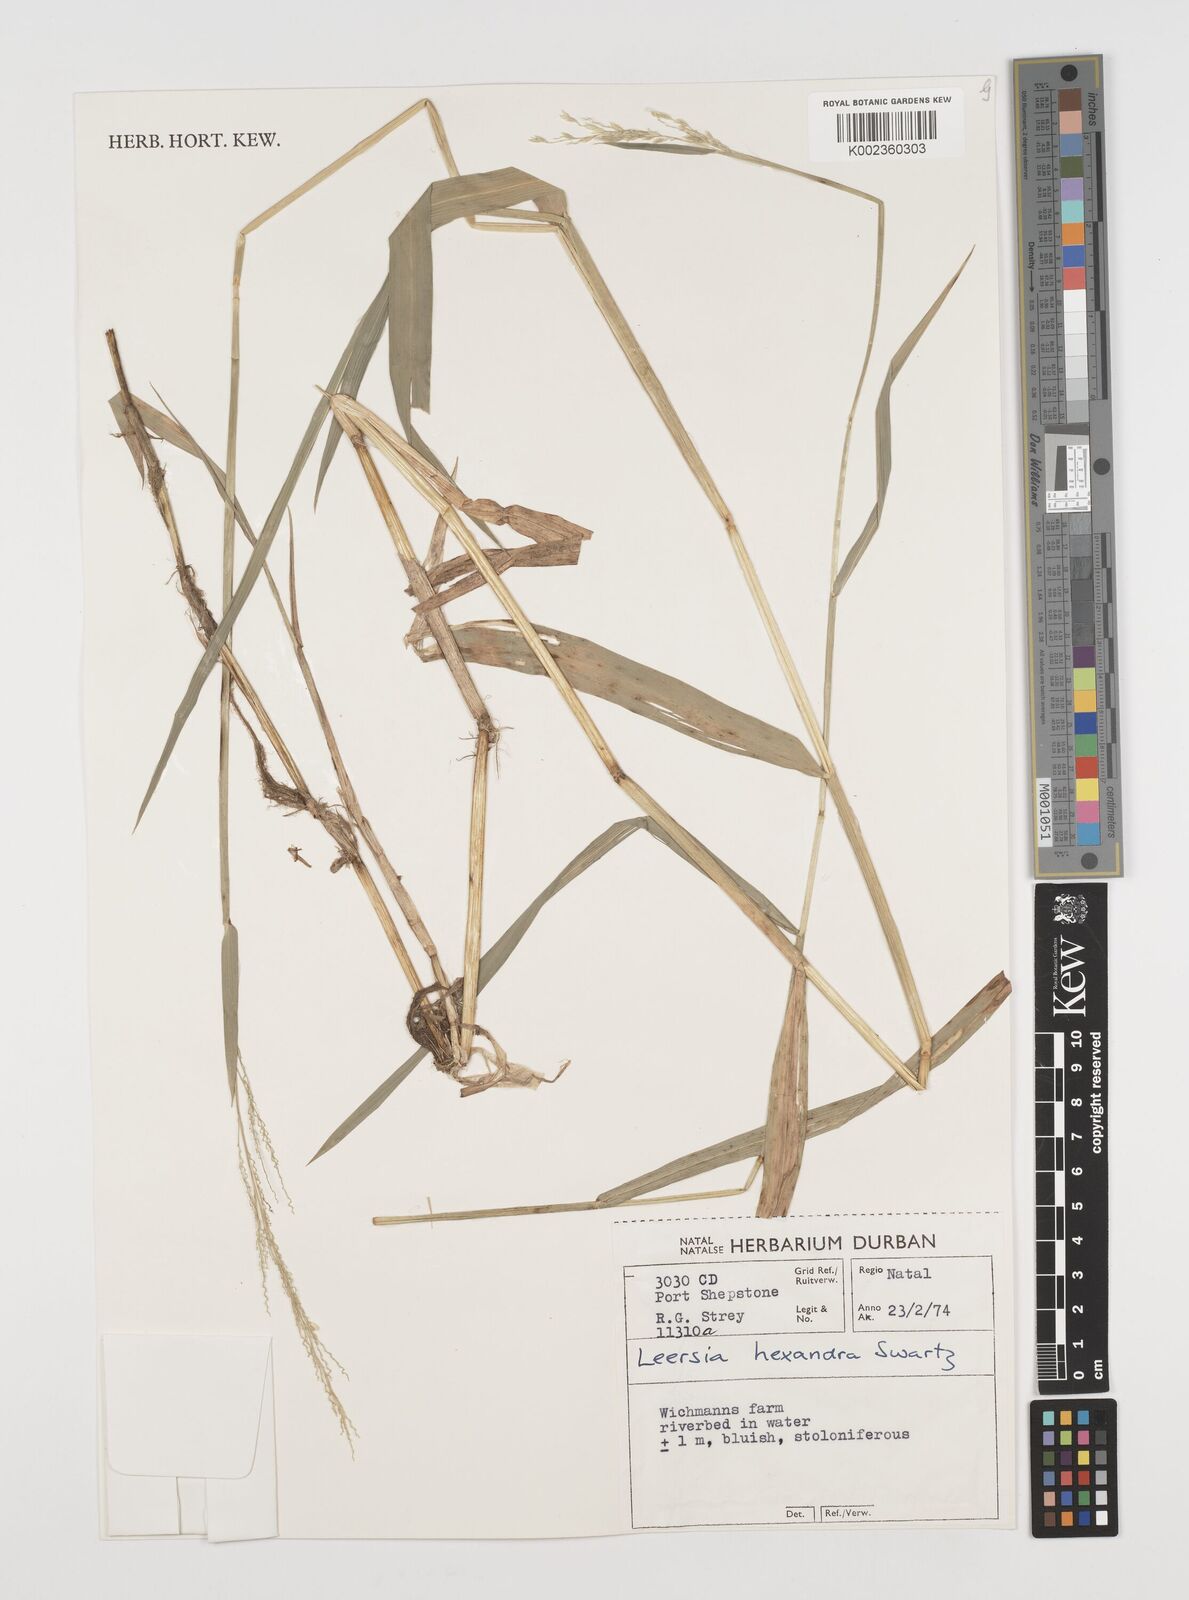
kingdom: Plantae
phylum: Tracheophyta
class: Liliopsida
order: Poales
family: Poaceae
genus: Leersia
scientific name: Leersia hexandra
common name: Southern cut grass
